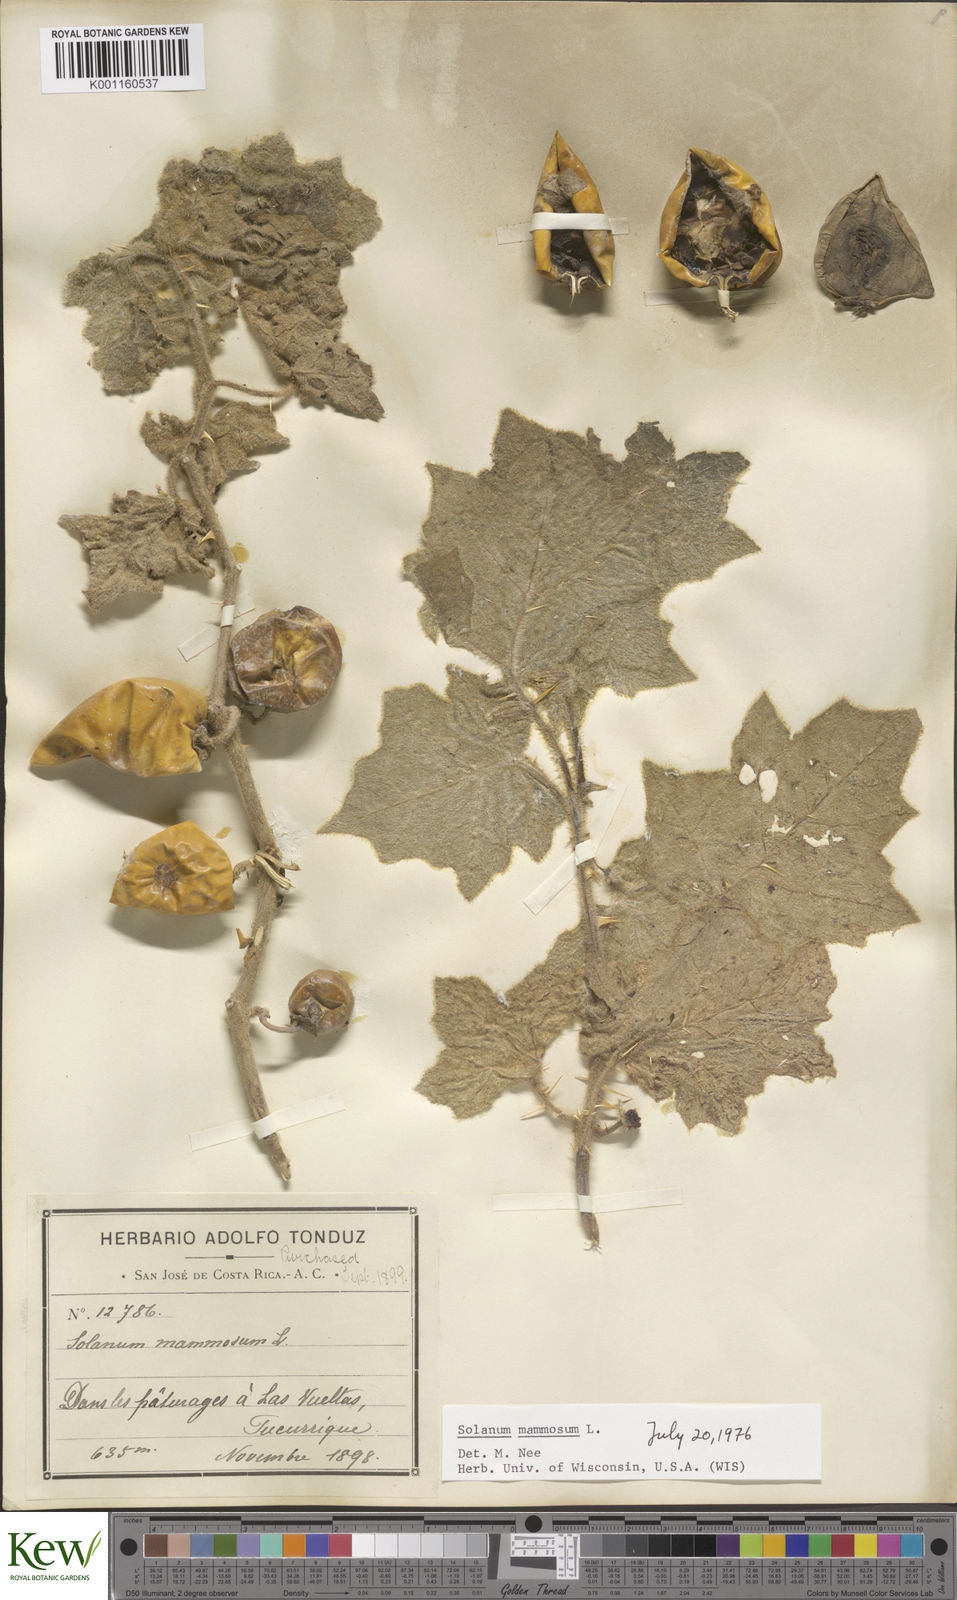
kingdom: Plantae
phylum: Tracheophyta
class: Magnoliopsida
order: Solanales
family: Solanaceae
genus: Solanum
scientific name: Solanum mammosum
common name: Nipple fruit
